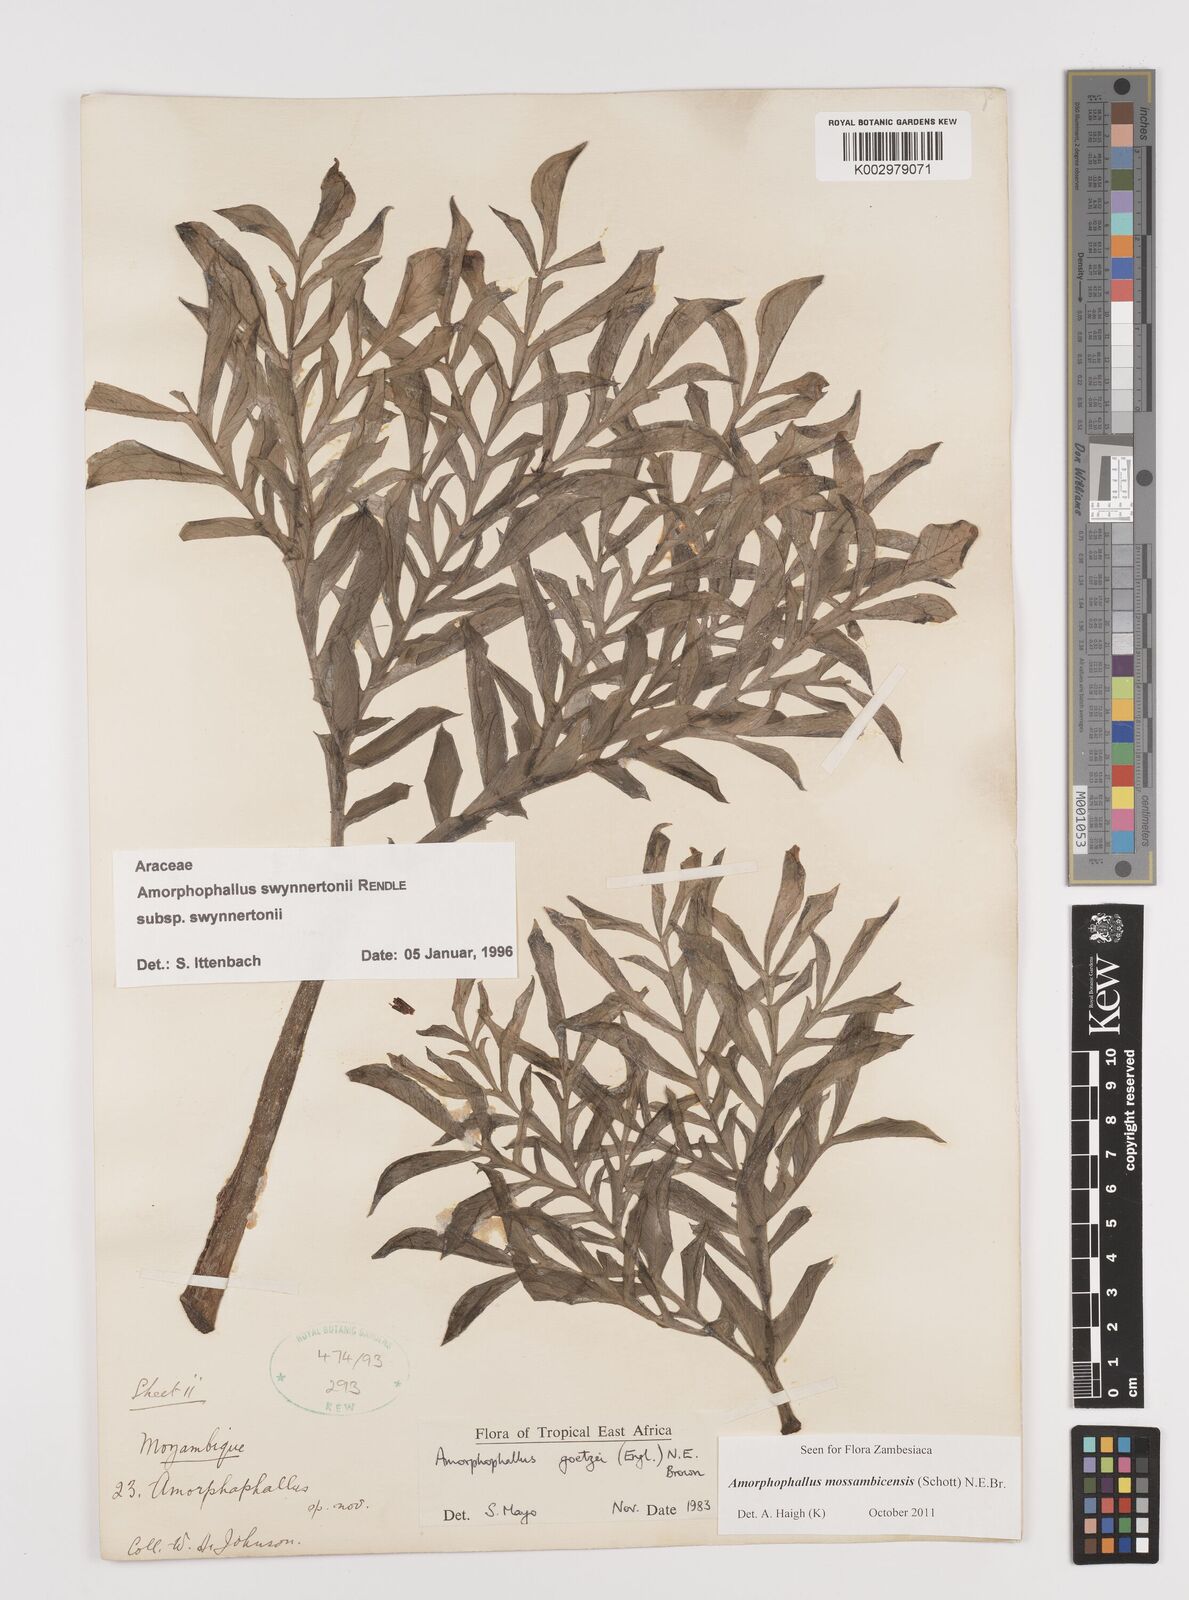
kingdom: Plantae
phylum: Tracheophyta
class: Liliopsida
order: Alismatales
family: Araceae
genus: Amorphophallus
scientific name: Amorphophallus mossambicensis
